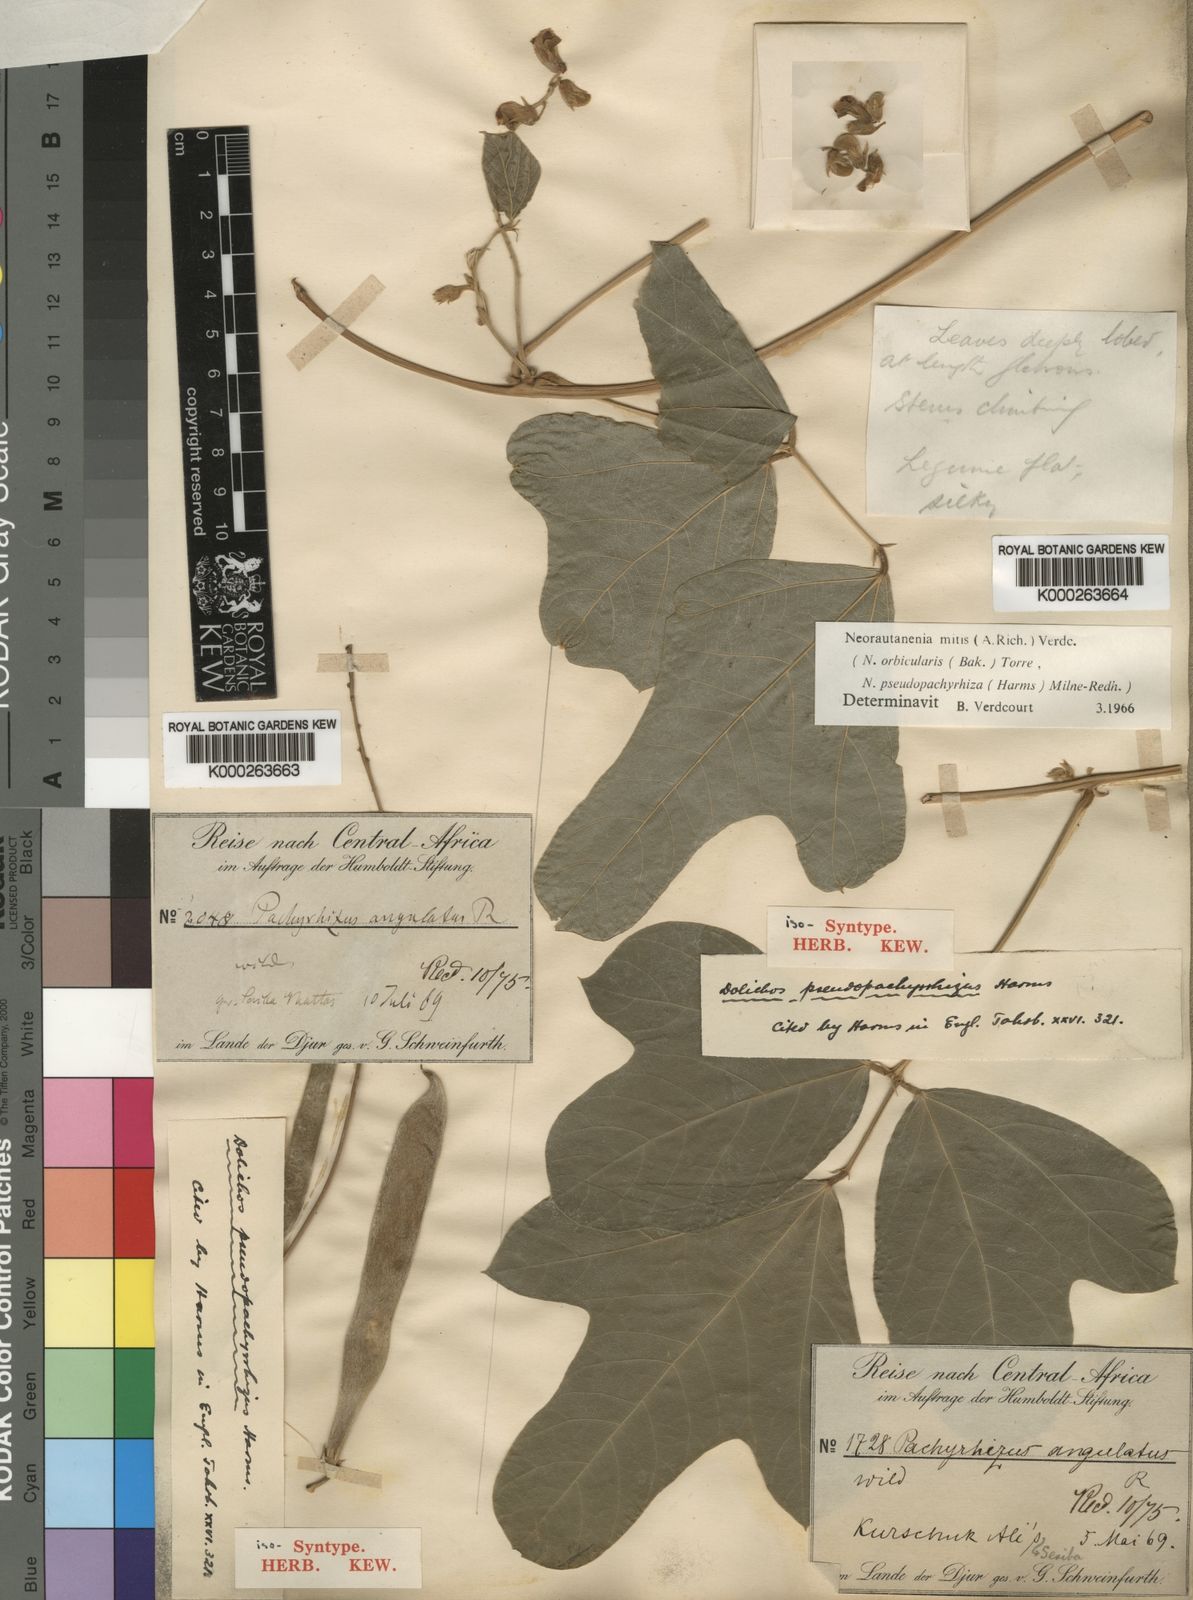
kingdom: Plantae
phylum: Tracheophyta
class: Magnoliopsida
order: Fabales
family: Fabaceae
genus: Neorautanenia
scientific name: Neorautanenia mitis
